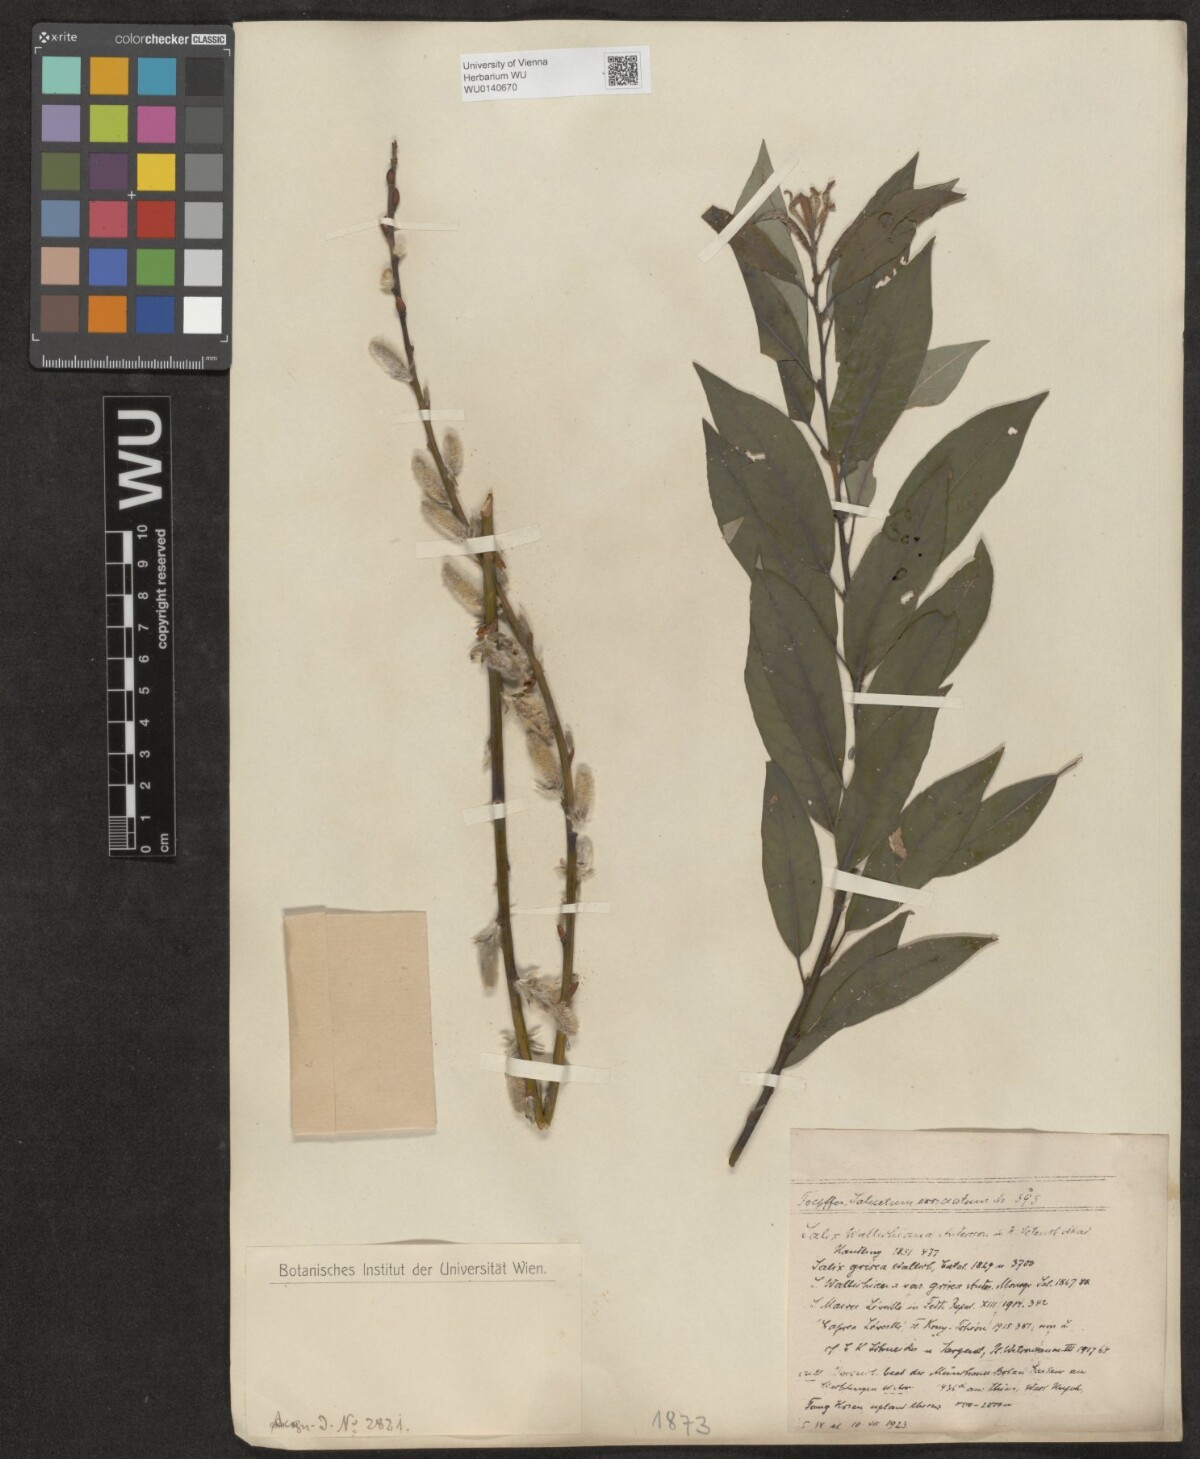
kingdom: Plantae
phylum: Tracheophyta
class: Magnoliopsida
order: Malpighiales
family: Salicaceae
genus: Salix
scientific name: Salix disperma
